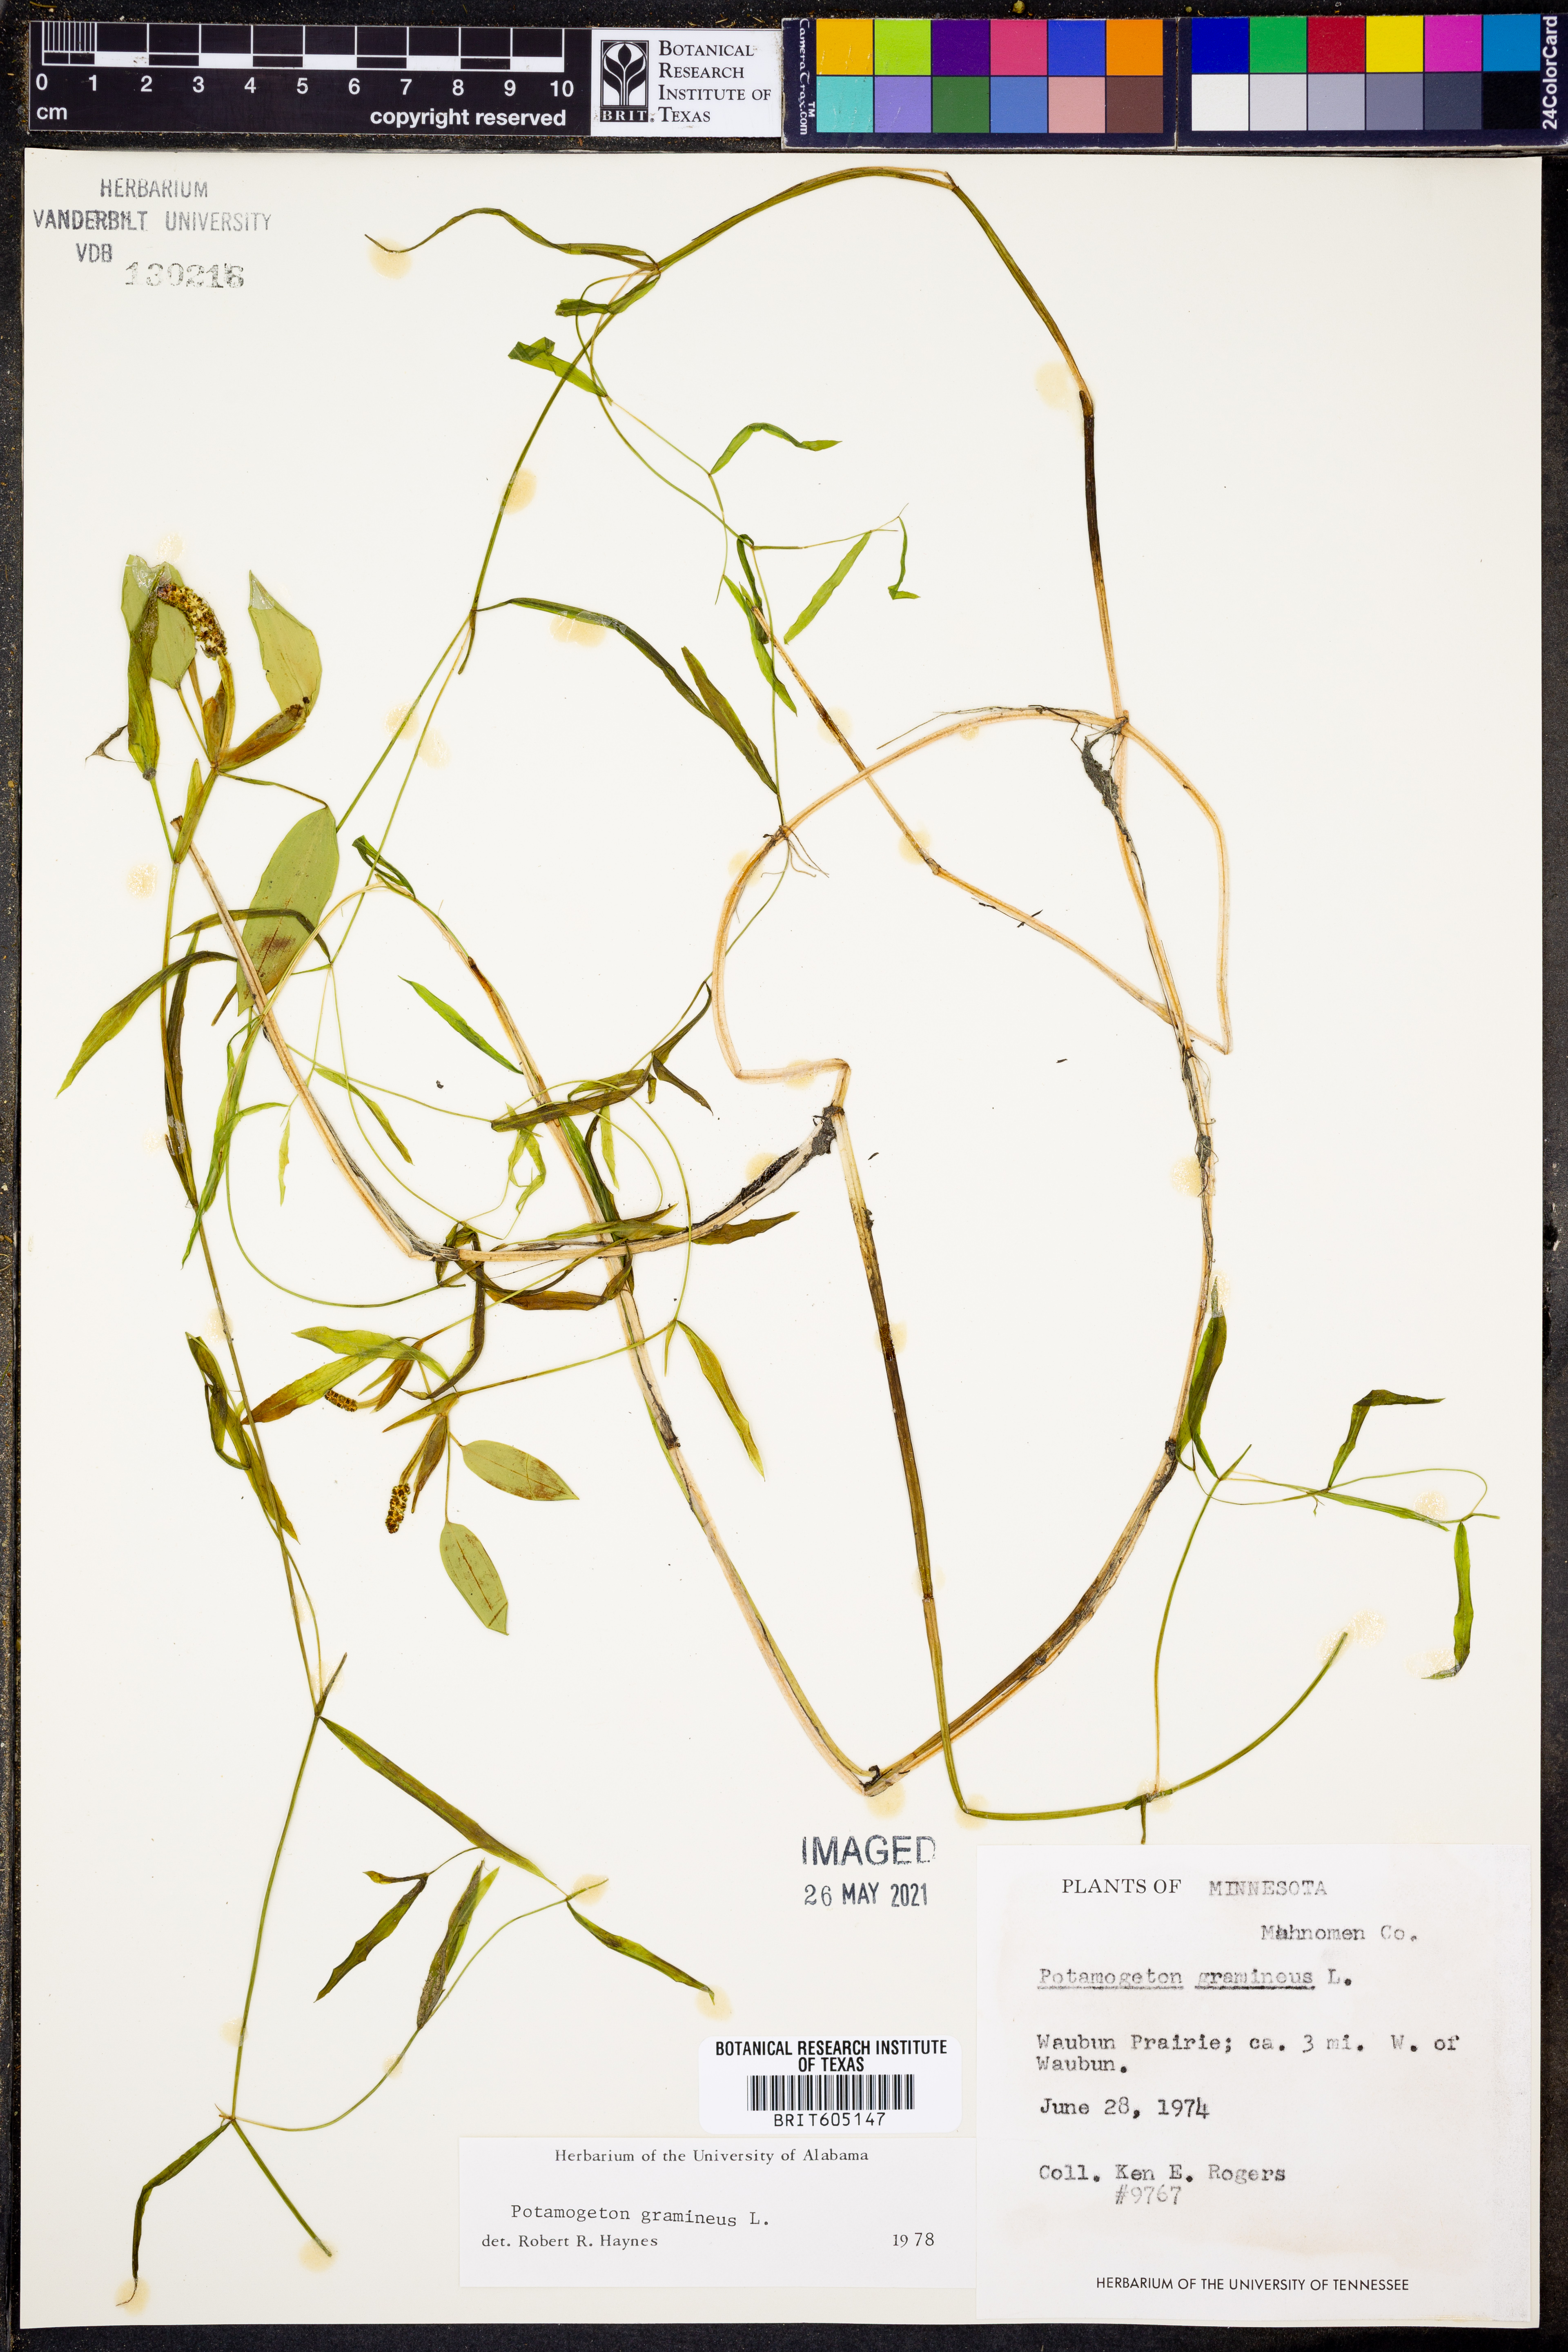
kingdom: Plantae
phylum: Tracheophyta
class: Liliopsida
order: Alismatales
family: Potamogetonaceae
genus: Potamogeton
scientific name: Potamogeton gramineus
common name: Various-leaved pondweed
